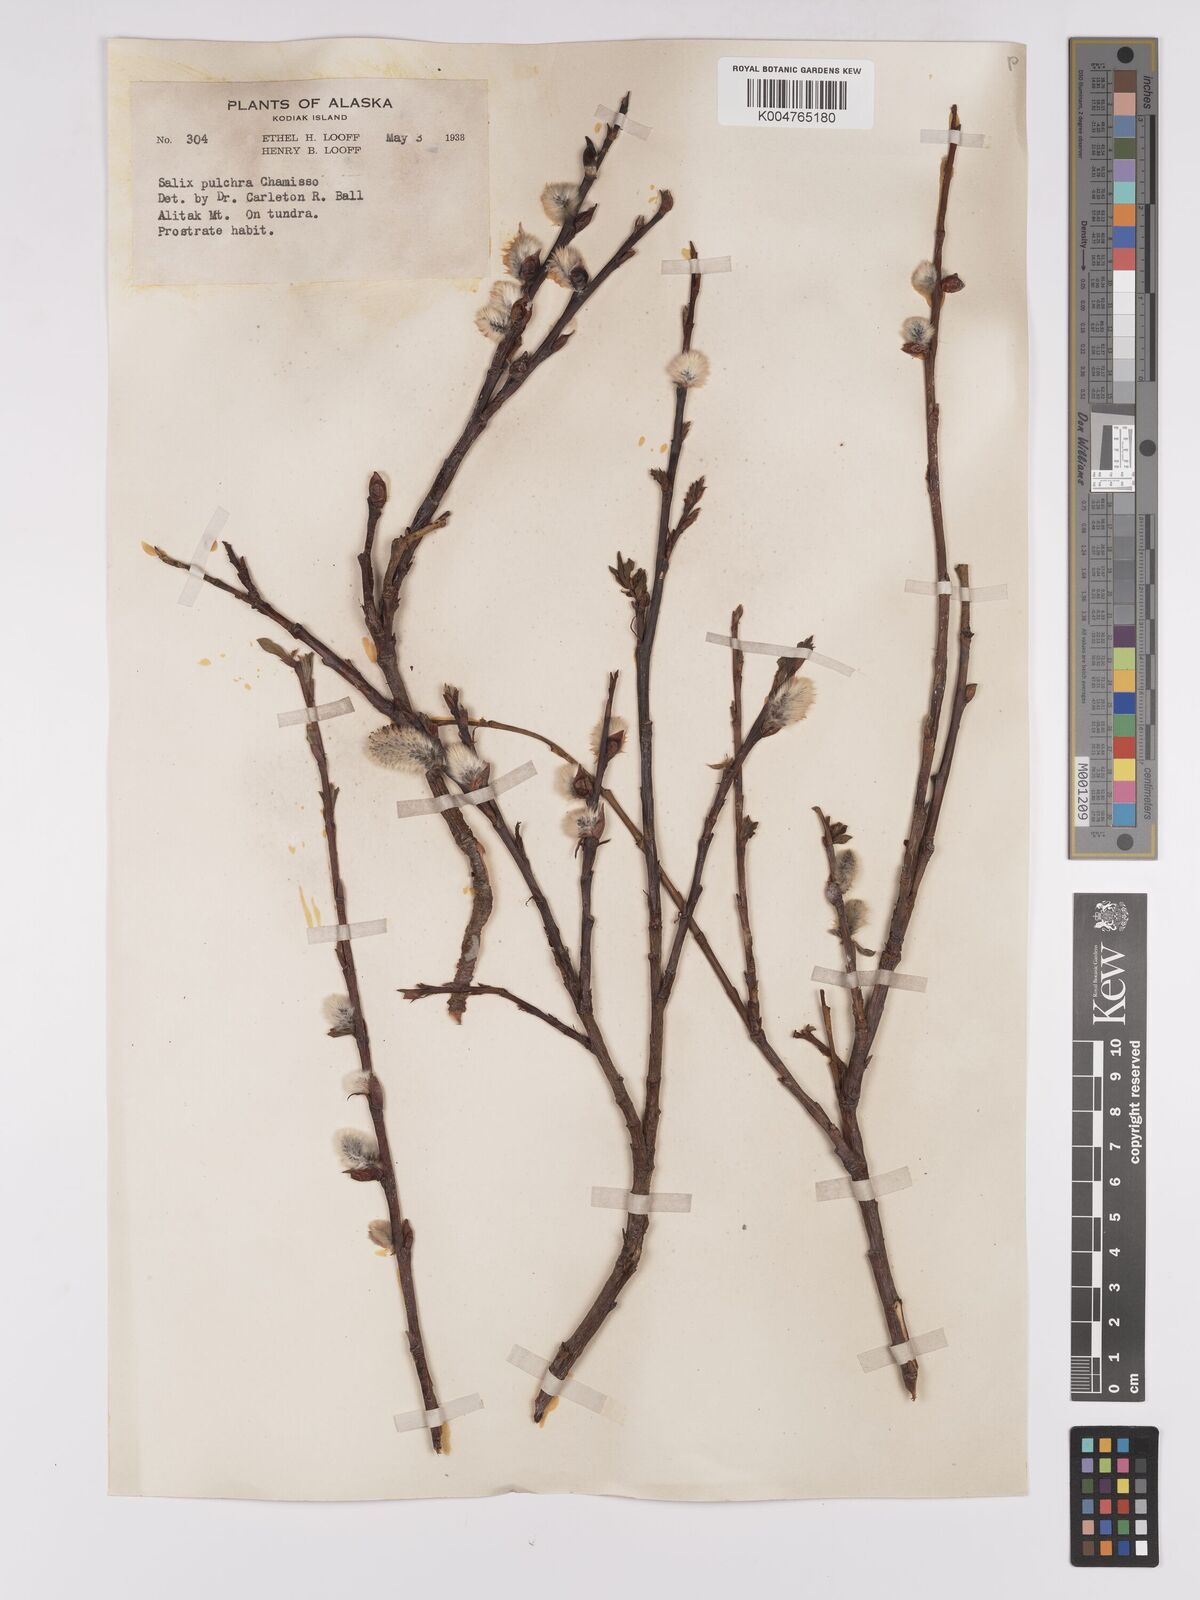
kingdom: Plantae
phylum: Tracheophyta
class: Magnoliopsida
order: Malpighiales
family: Salicaceae
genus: Salix
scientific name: Salix
